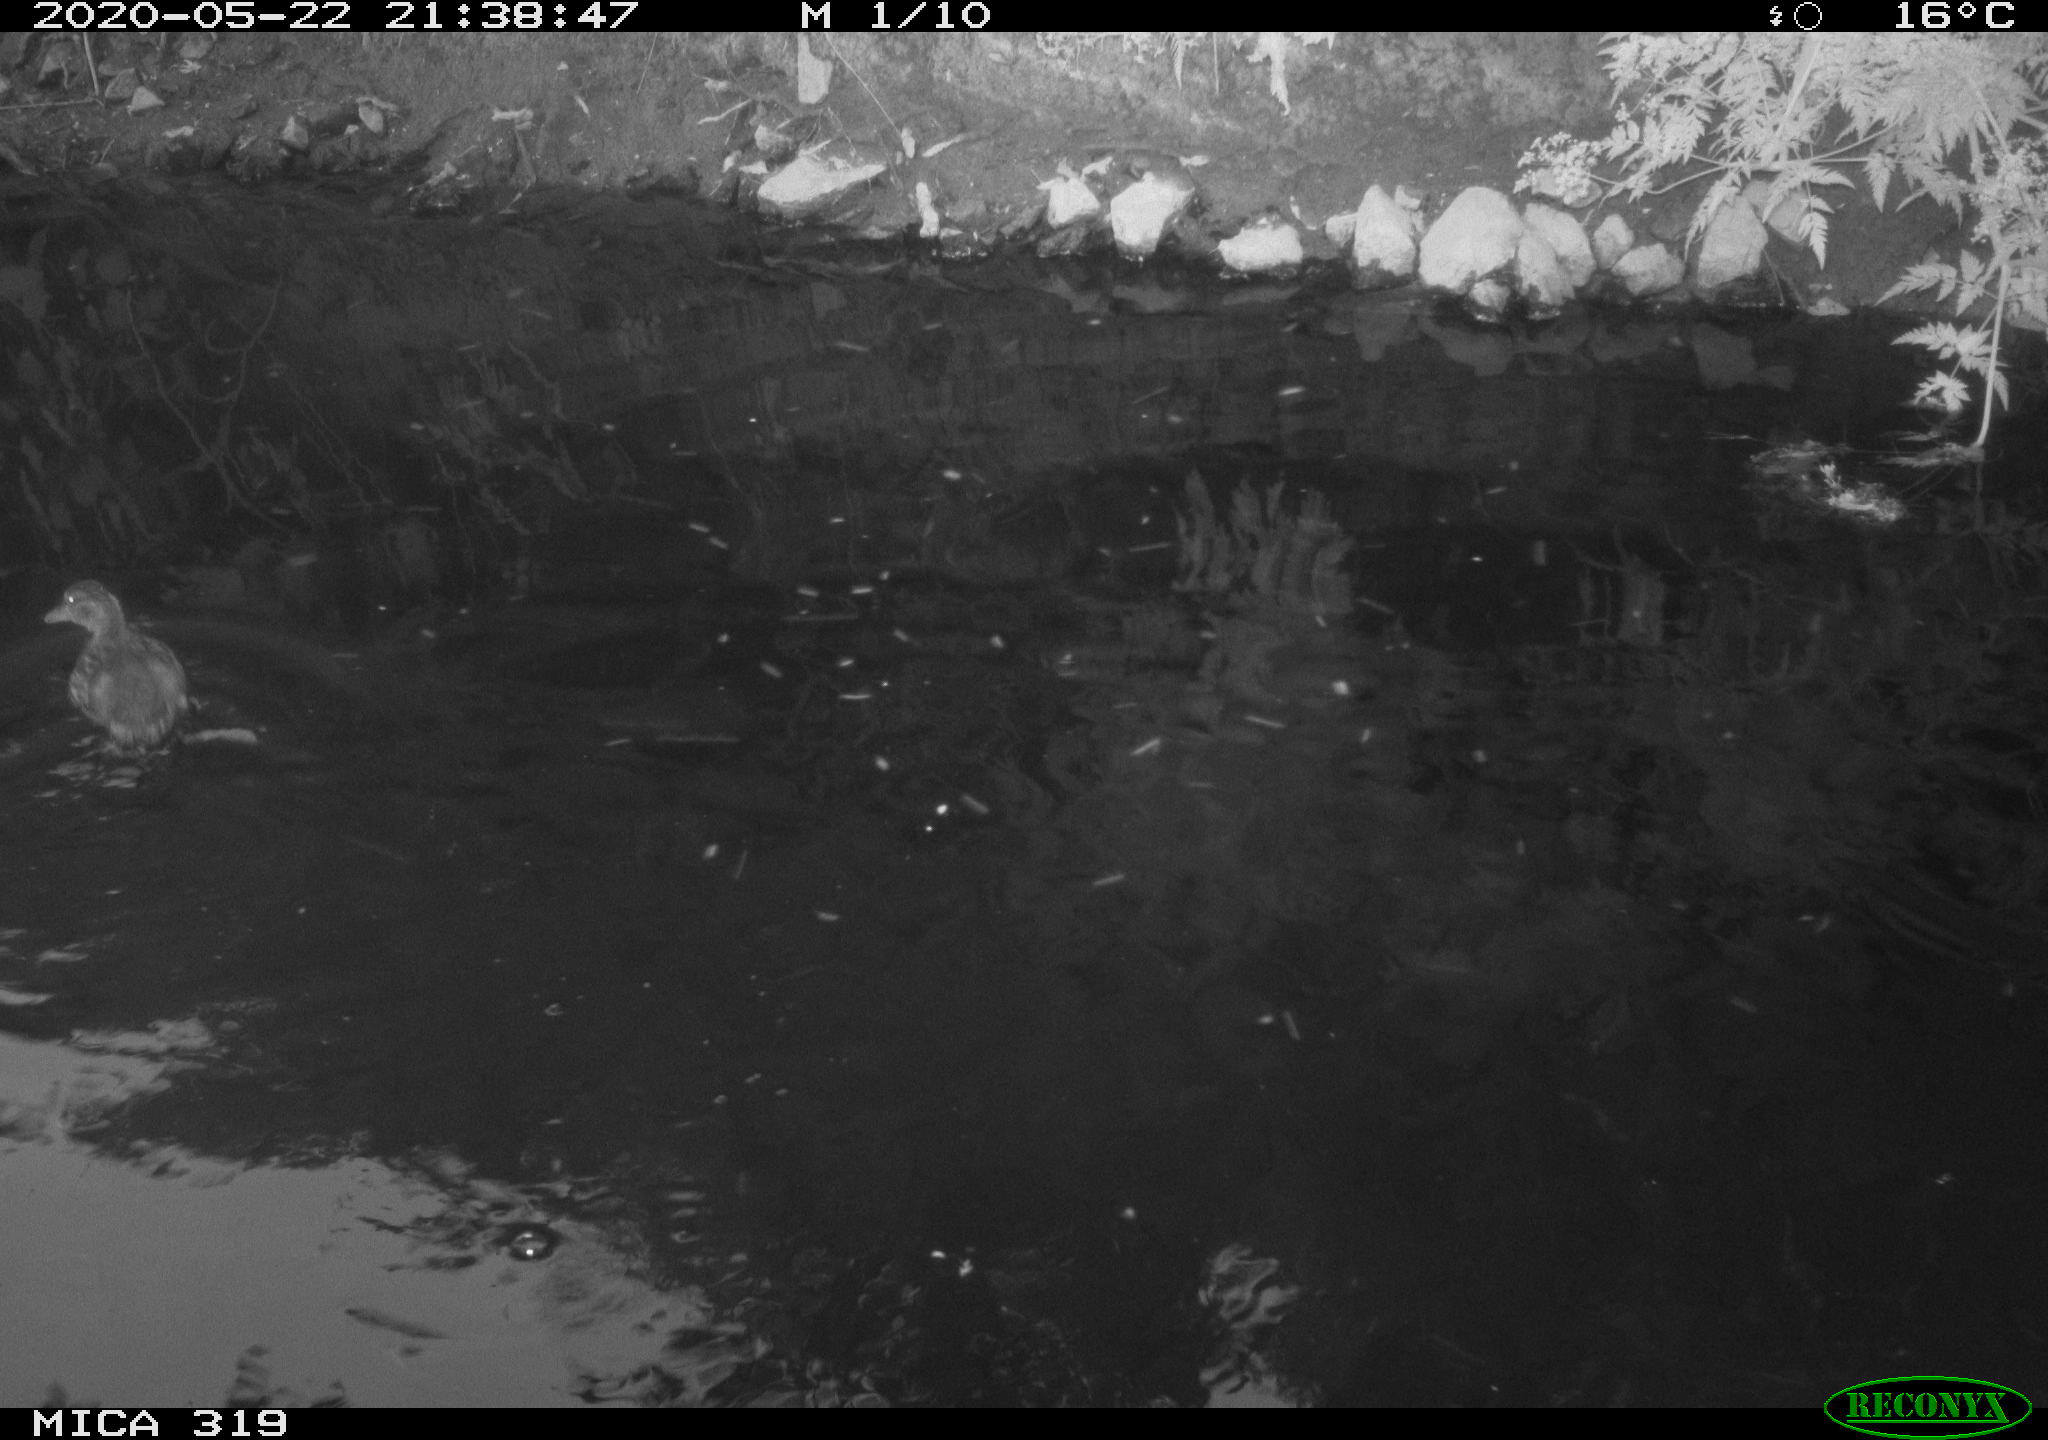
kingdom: Animalia
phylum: Chordata
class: Aves
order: Anseriformes
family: Anatidae
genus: Anas
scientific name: Anas platyrhynchos
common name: Mallard
